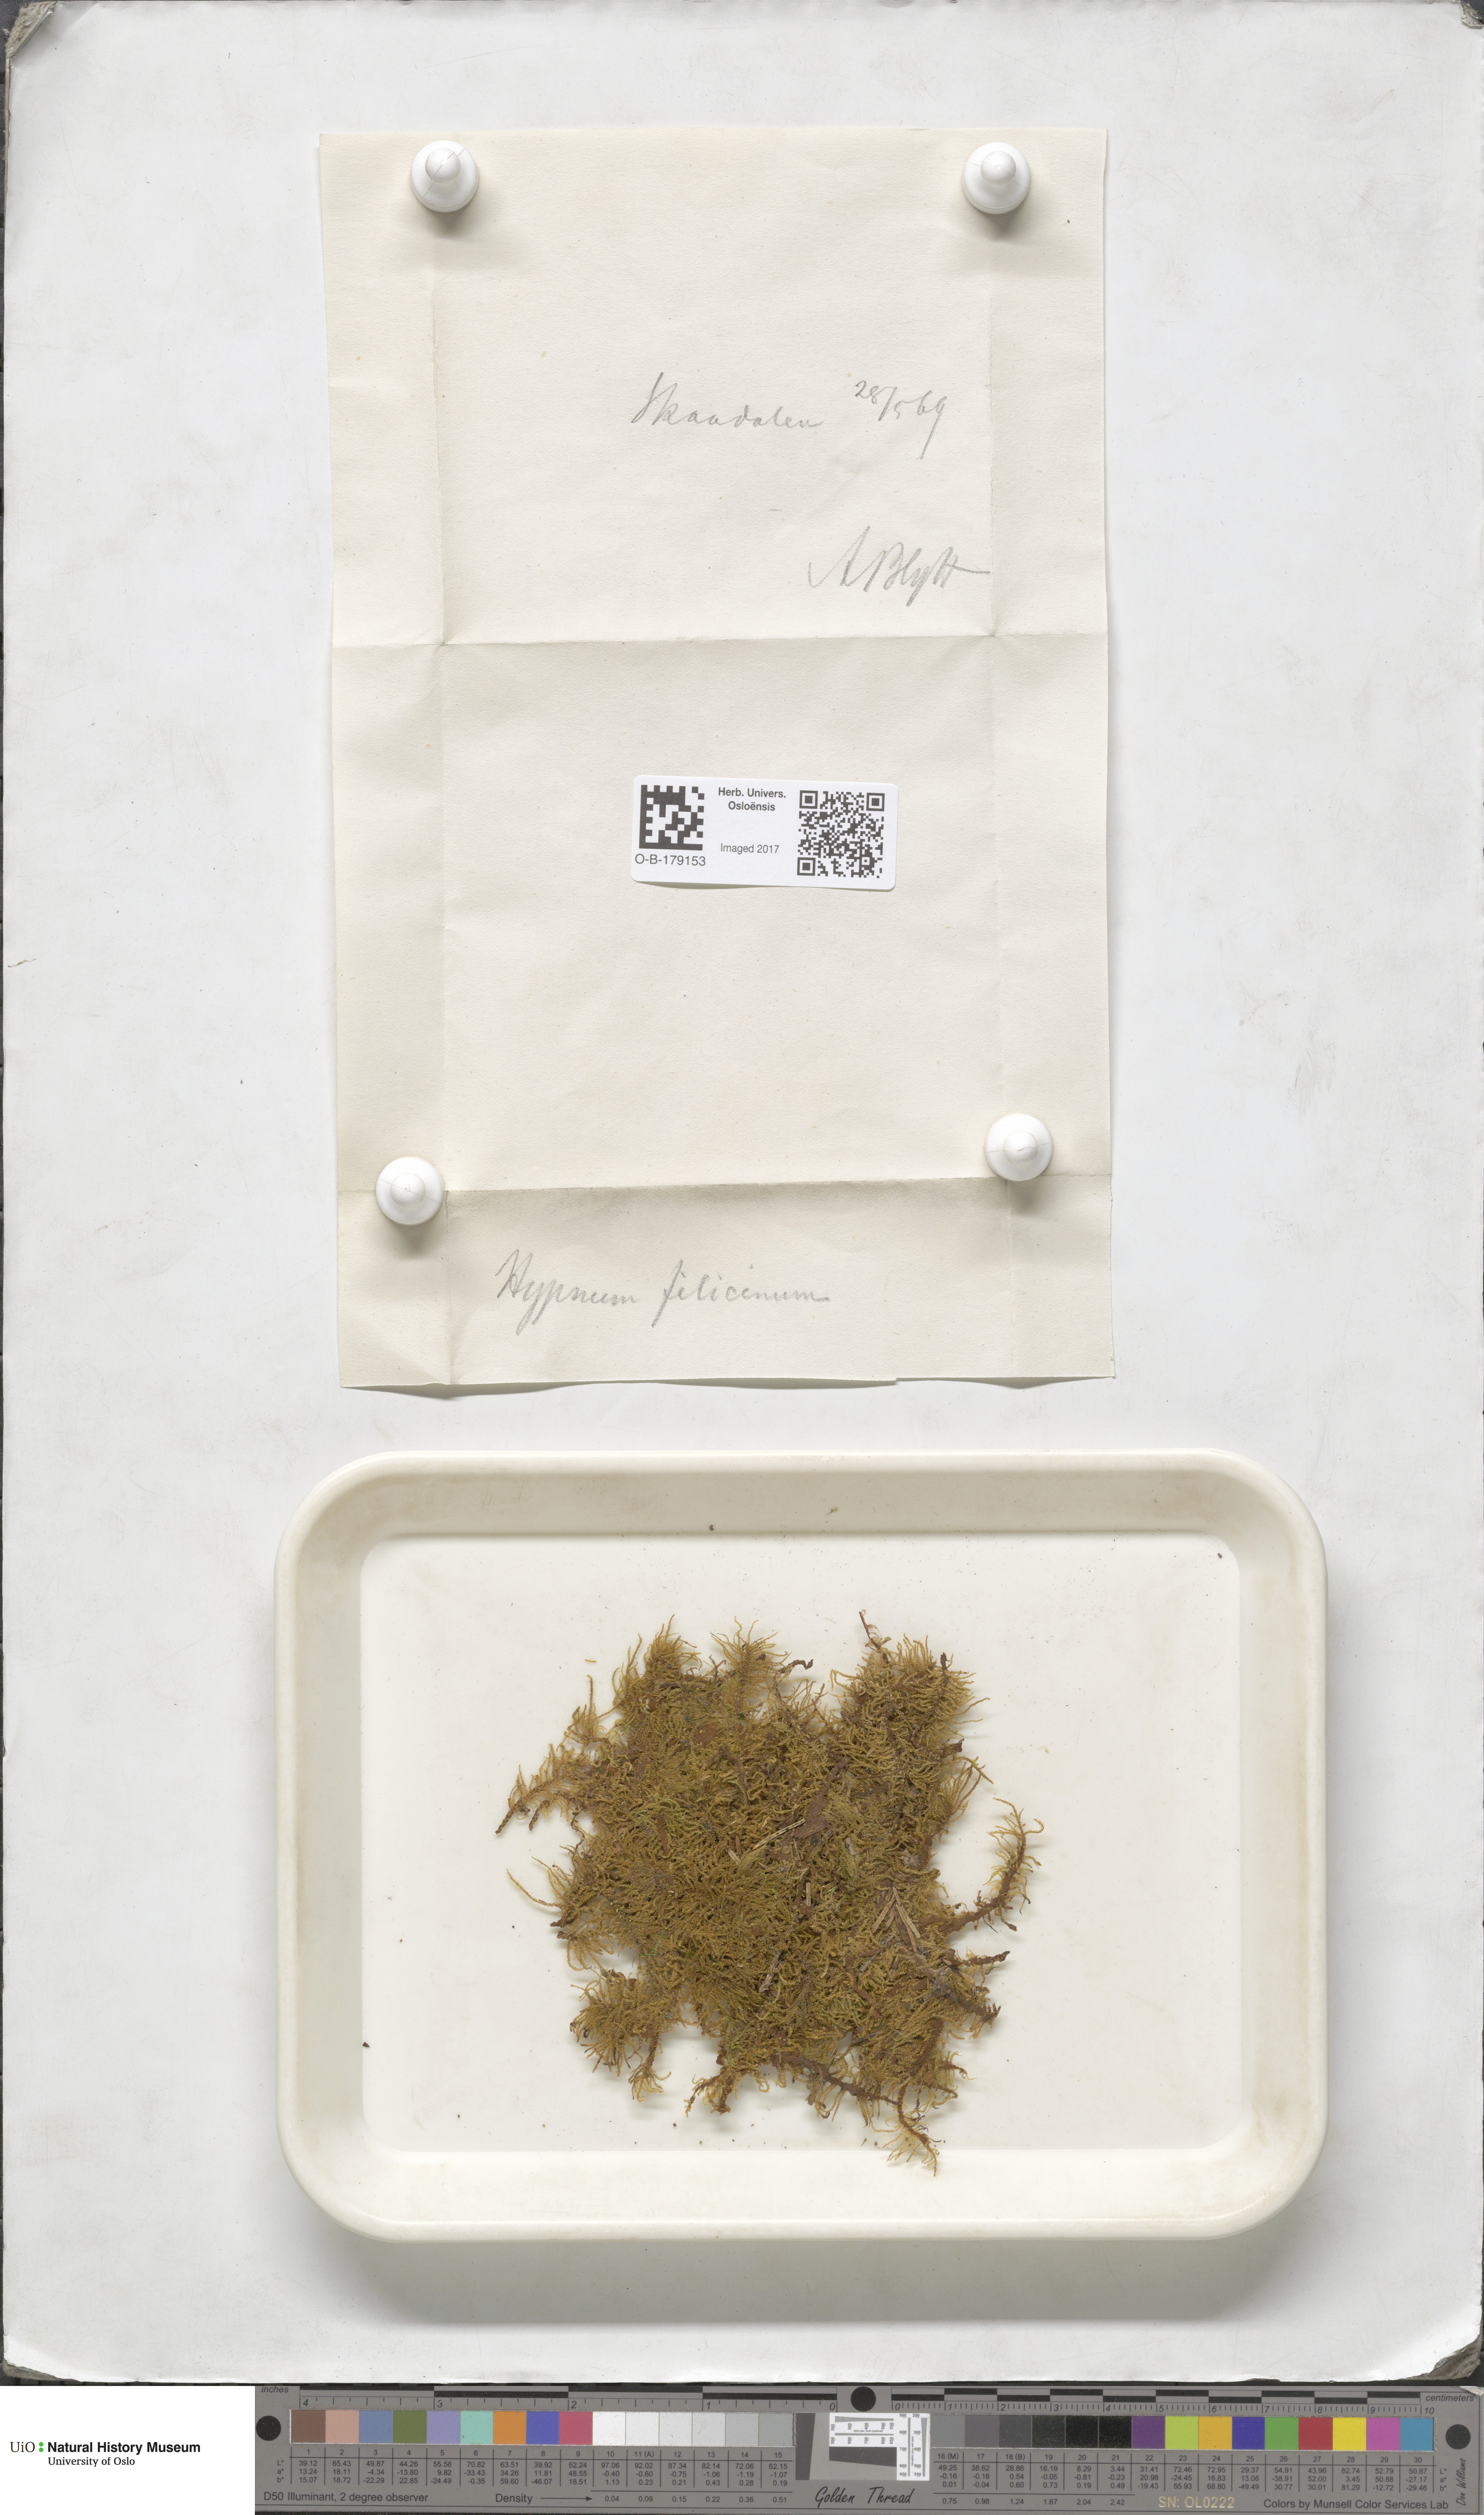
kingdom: Plantae
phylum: Bryophyta
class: Bryopsida
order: Hypnales
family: Amblystegiaceae
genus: Cratoneuron
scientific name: Cratoneuron filicinum
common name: Fern-leaved hook moss
